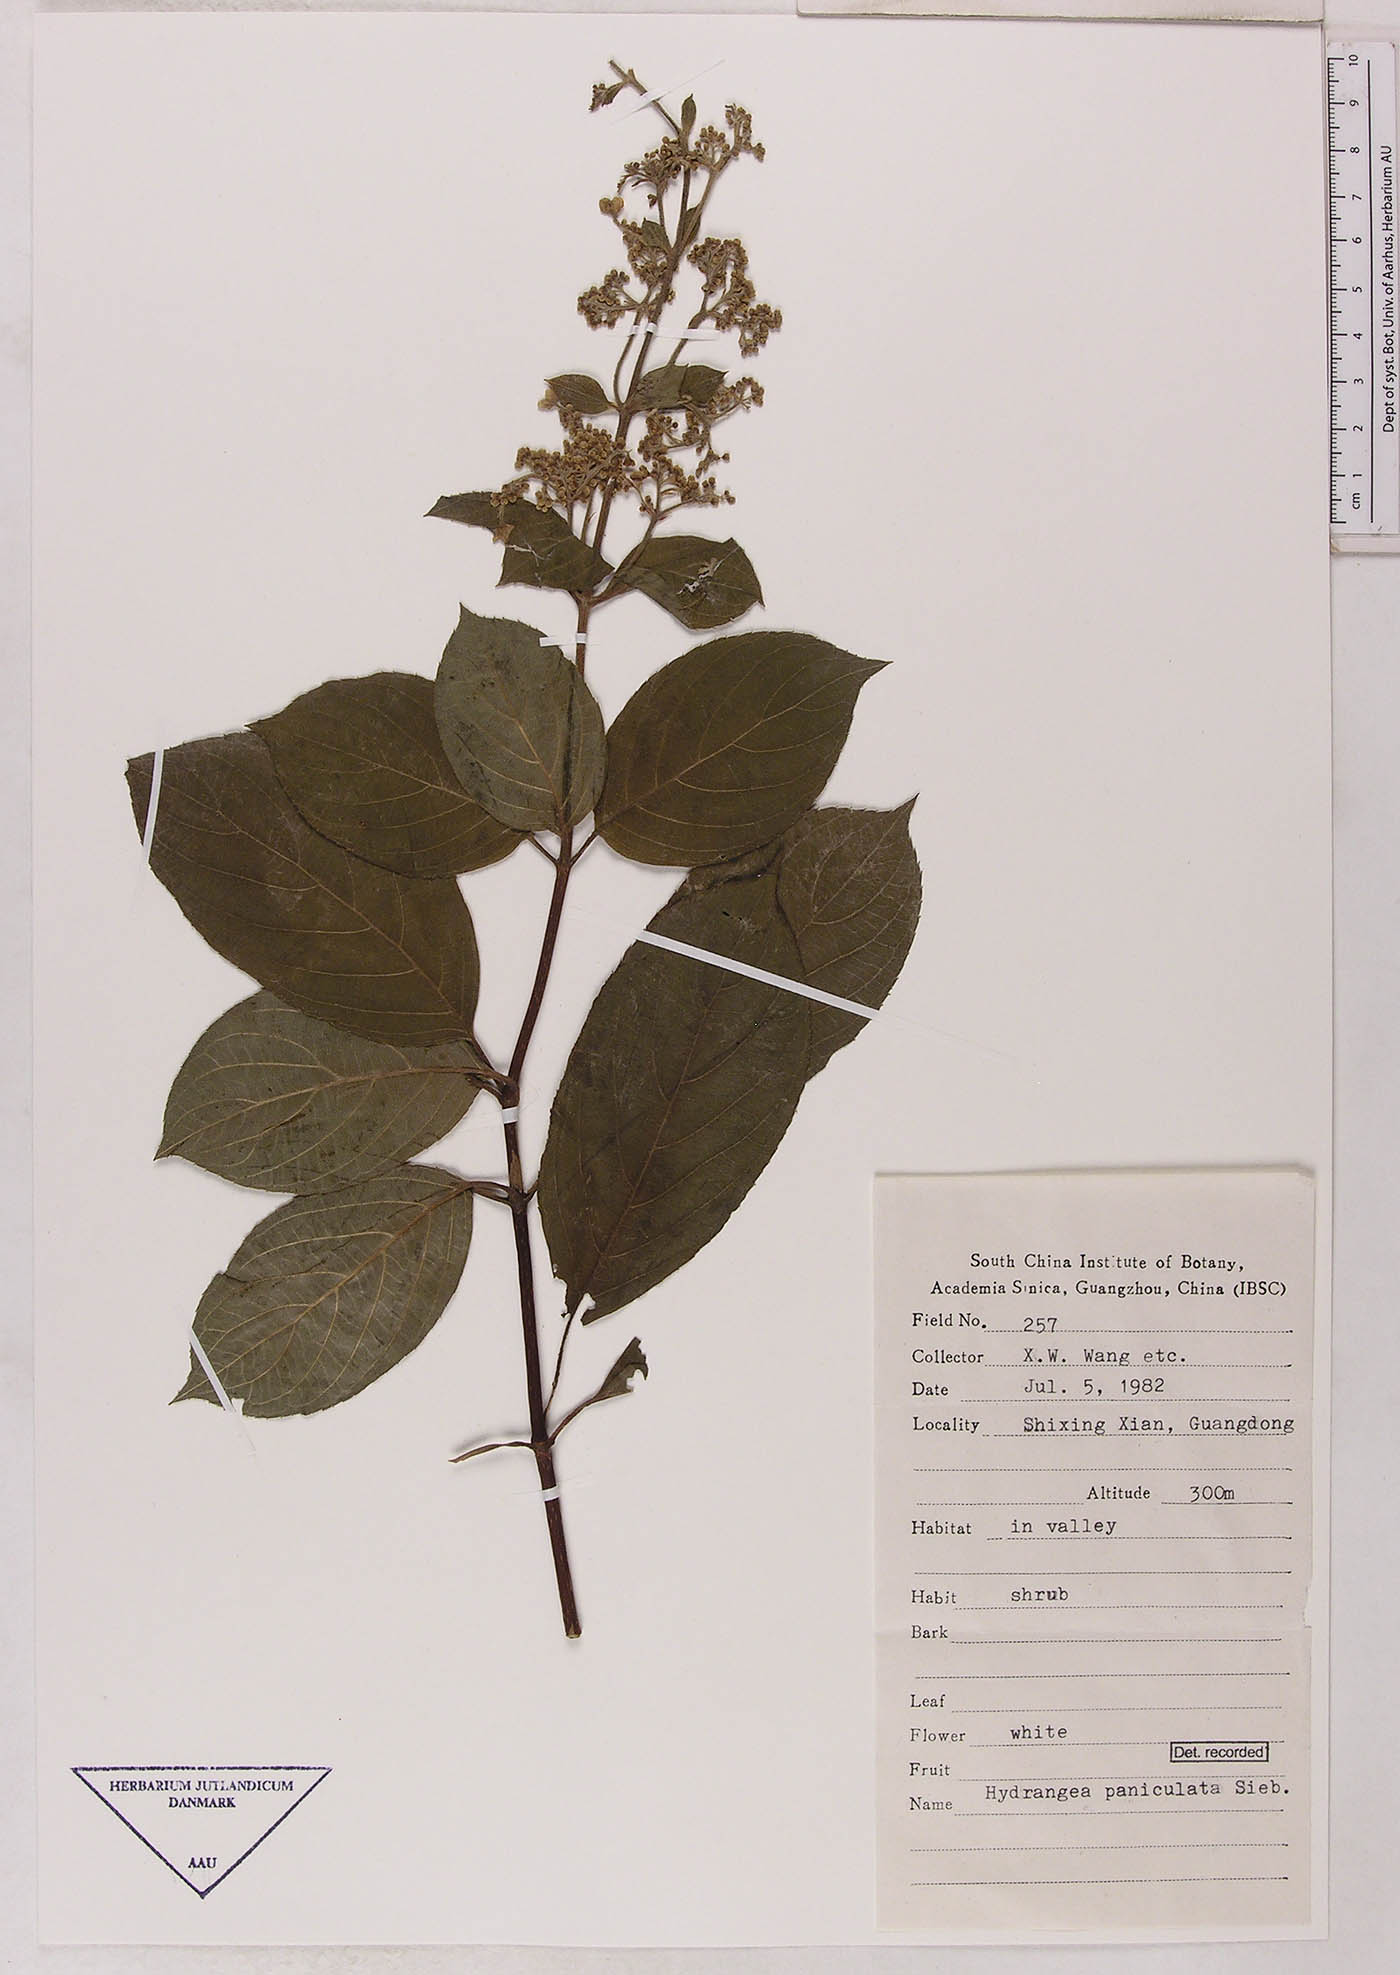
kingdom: Plantae
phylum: Tracheophyta
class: Magnoliopsida
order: Cornales
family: Hydrangeaceae
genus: Hydrangea
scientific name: Hydrangea paniculata
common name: Panicled hydrangea
